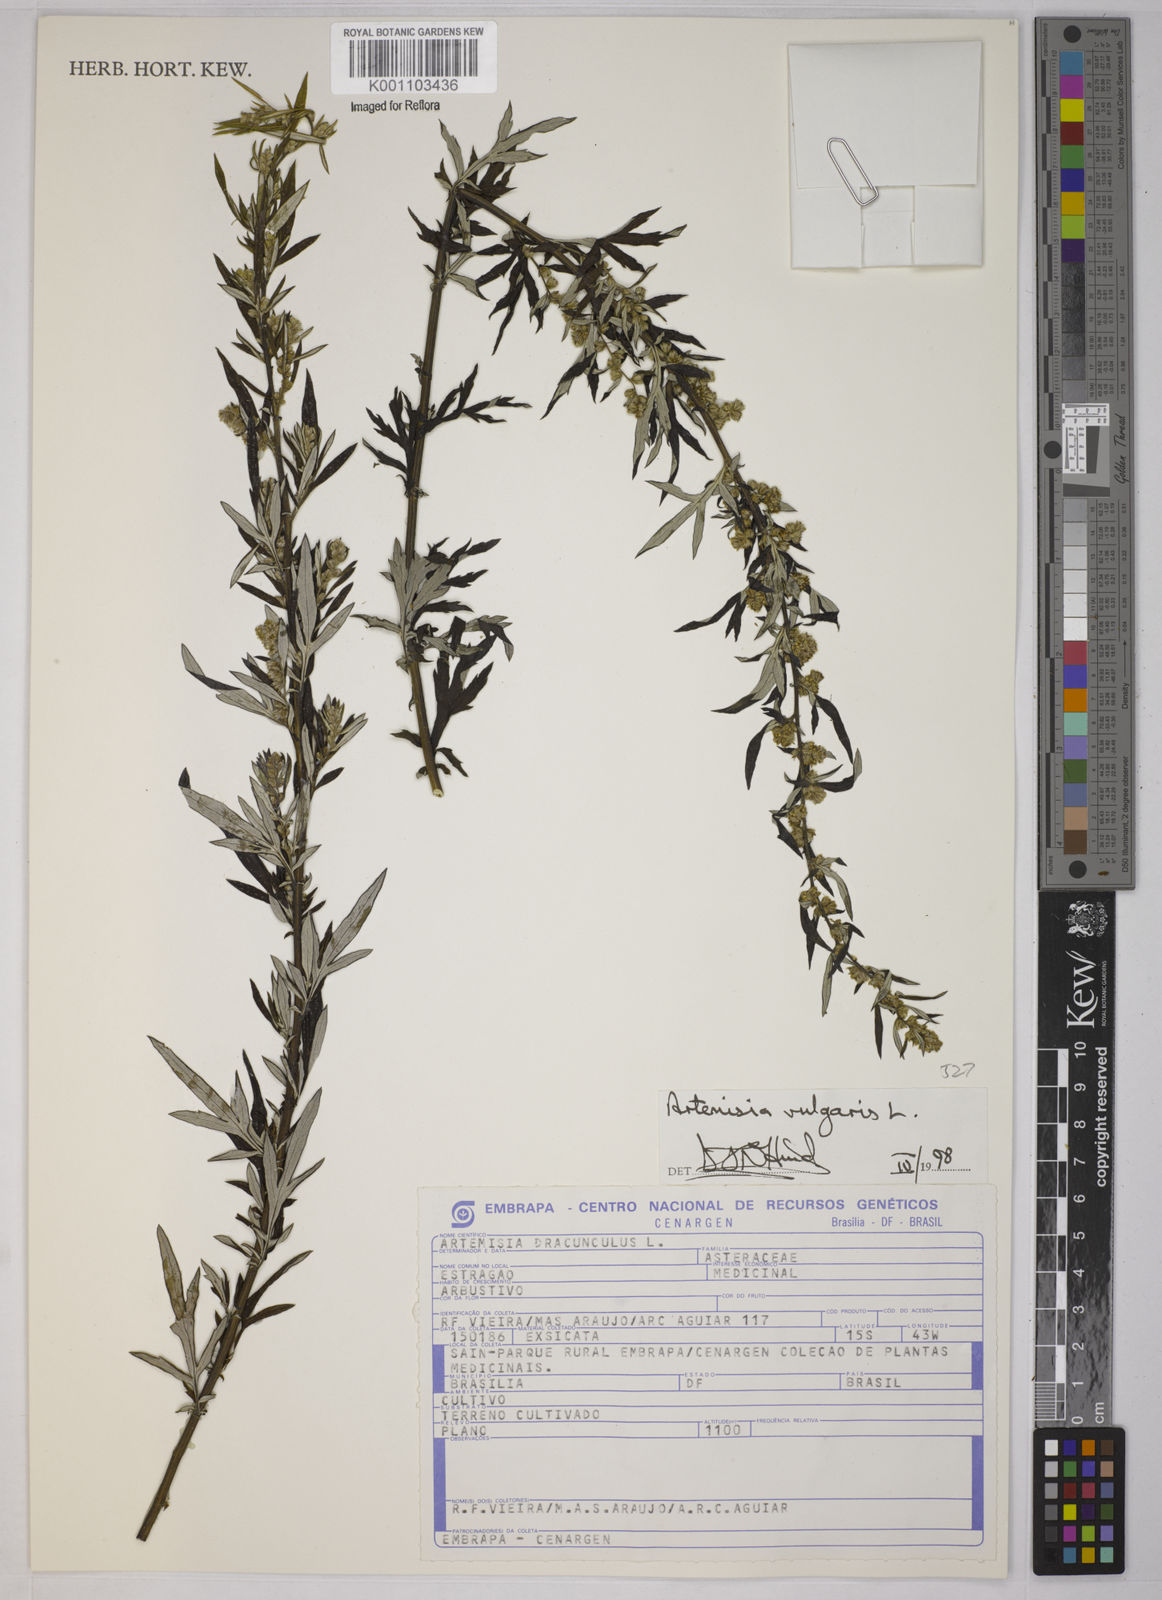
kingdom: Plantae
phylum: Tracheophyta
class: Magnoliopsida
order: Asterales
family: Asteraceae
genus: Artemisia
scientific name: Artemisia vulgaris
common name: Mugwort
